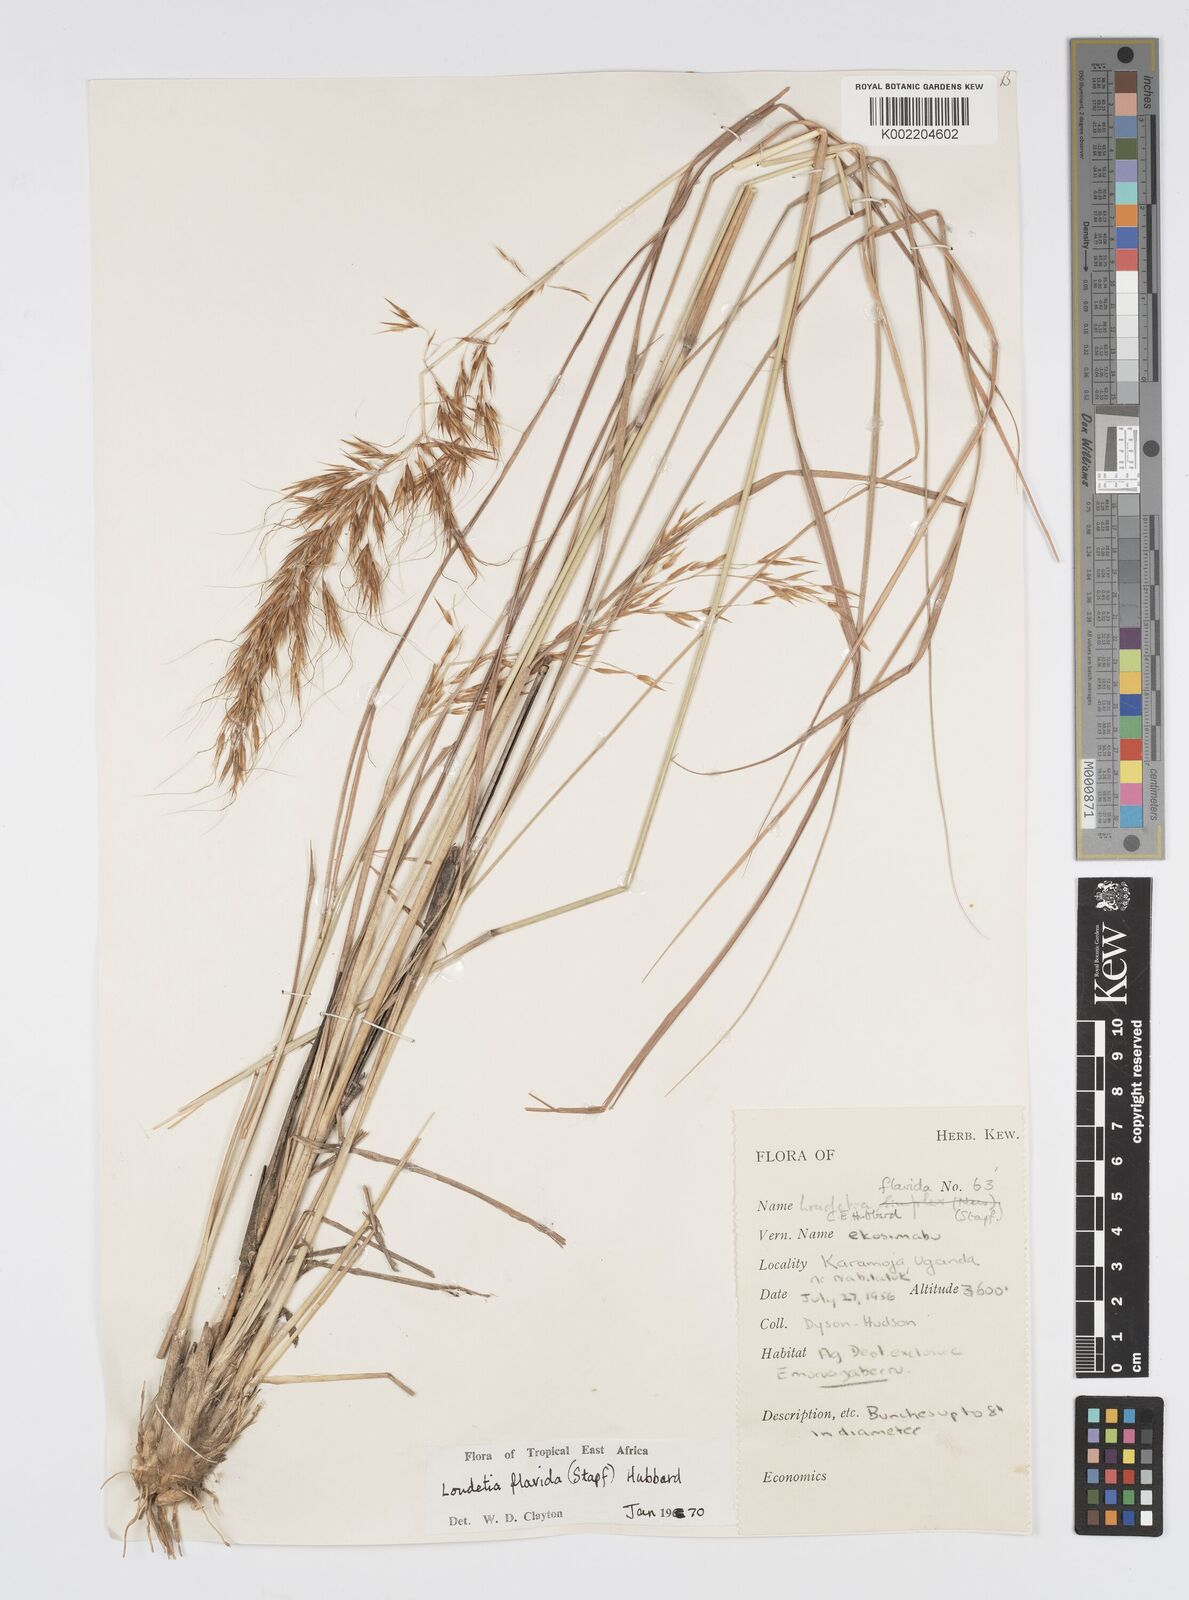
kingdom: Plantae
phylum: Tracheophyta
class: Liliopsida
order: Poales
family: Poaceae
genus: Loudetia
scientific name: Loudetia flavida
